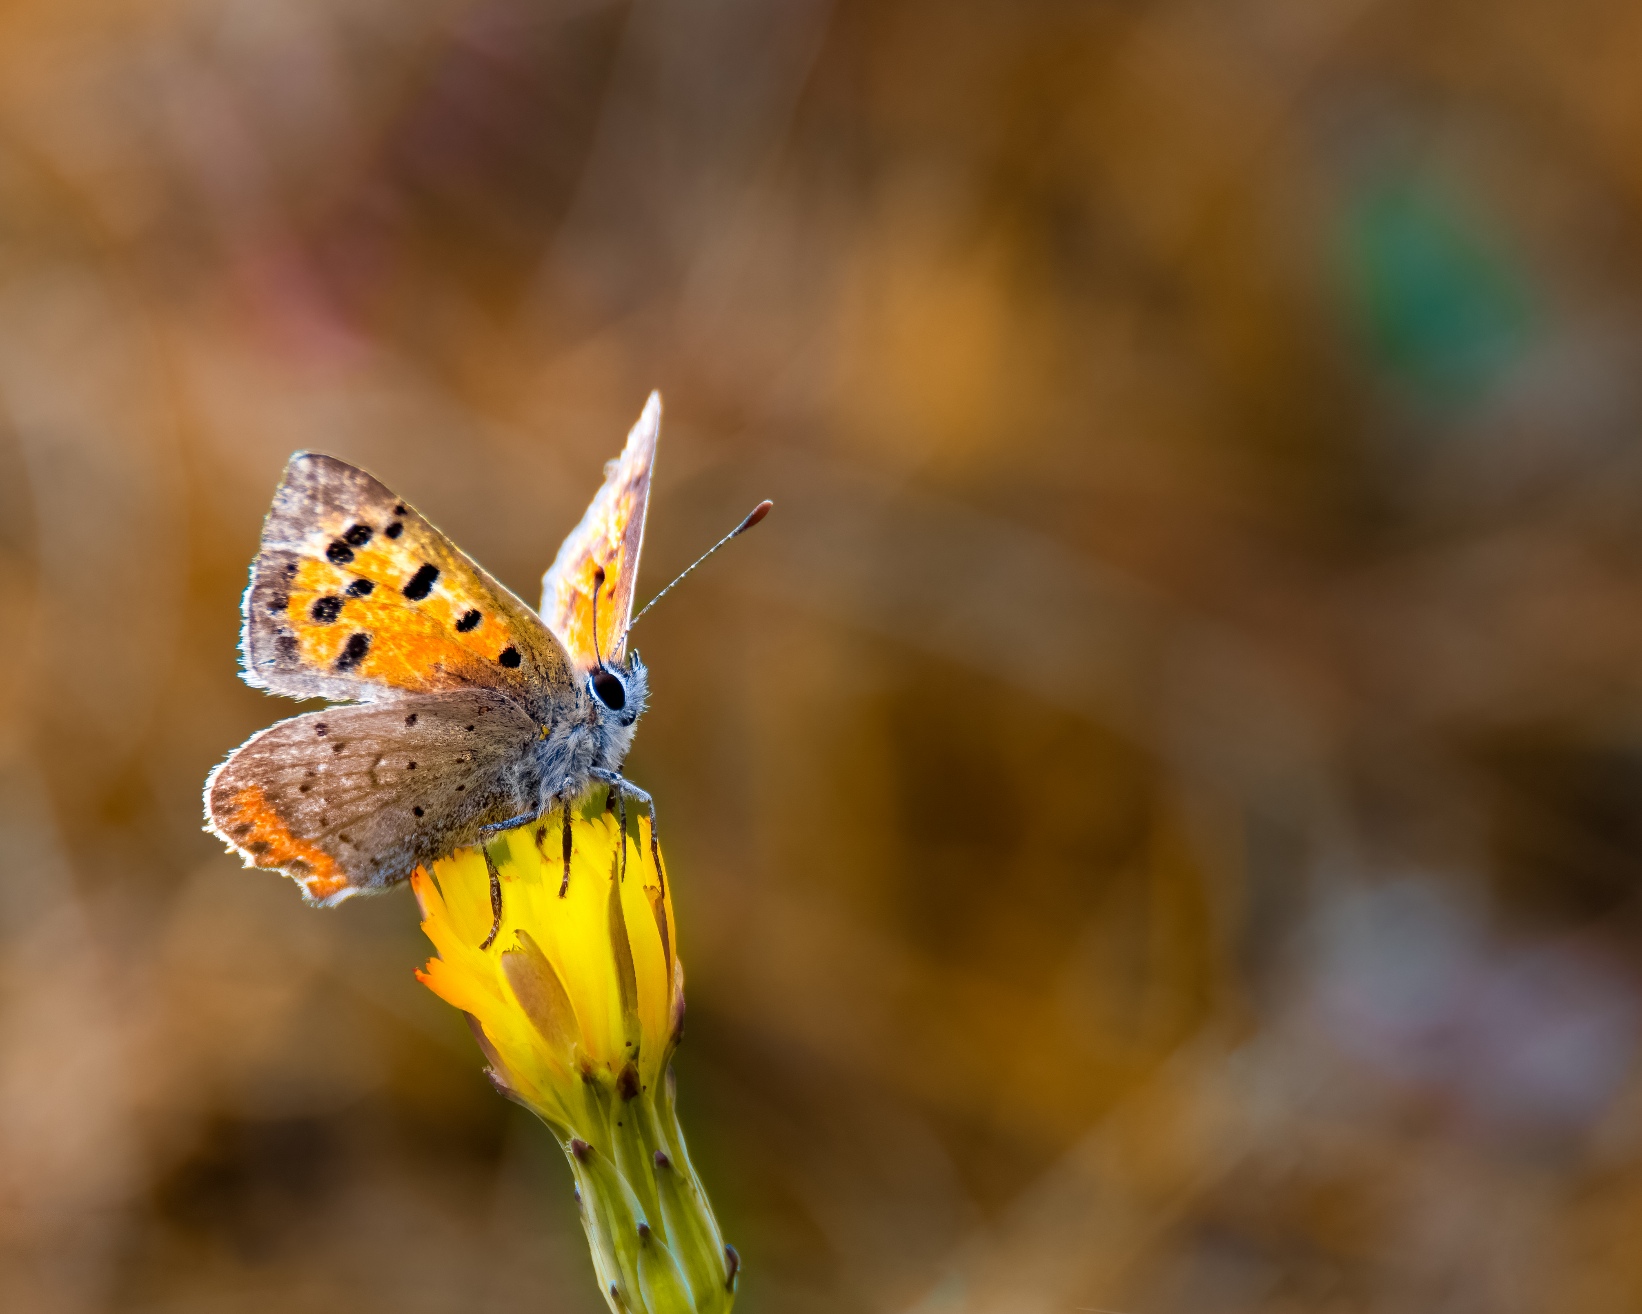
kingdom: Animalia
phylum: Arthropoda
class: Insecta
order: Lepidoptera
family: Lycaenidae
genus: Lycaena
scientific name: Lycaena phlaeas
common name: Lille ildfugl
